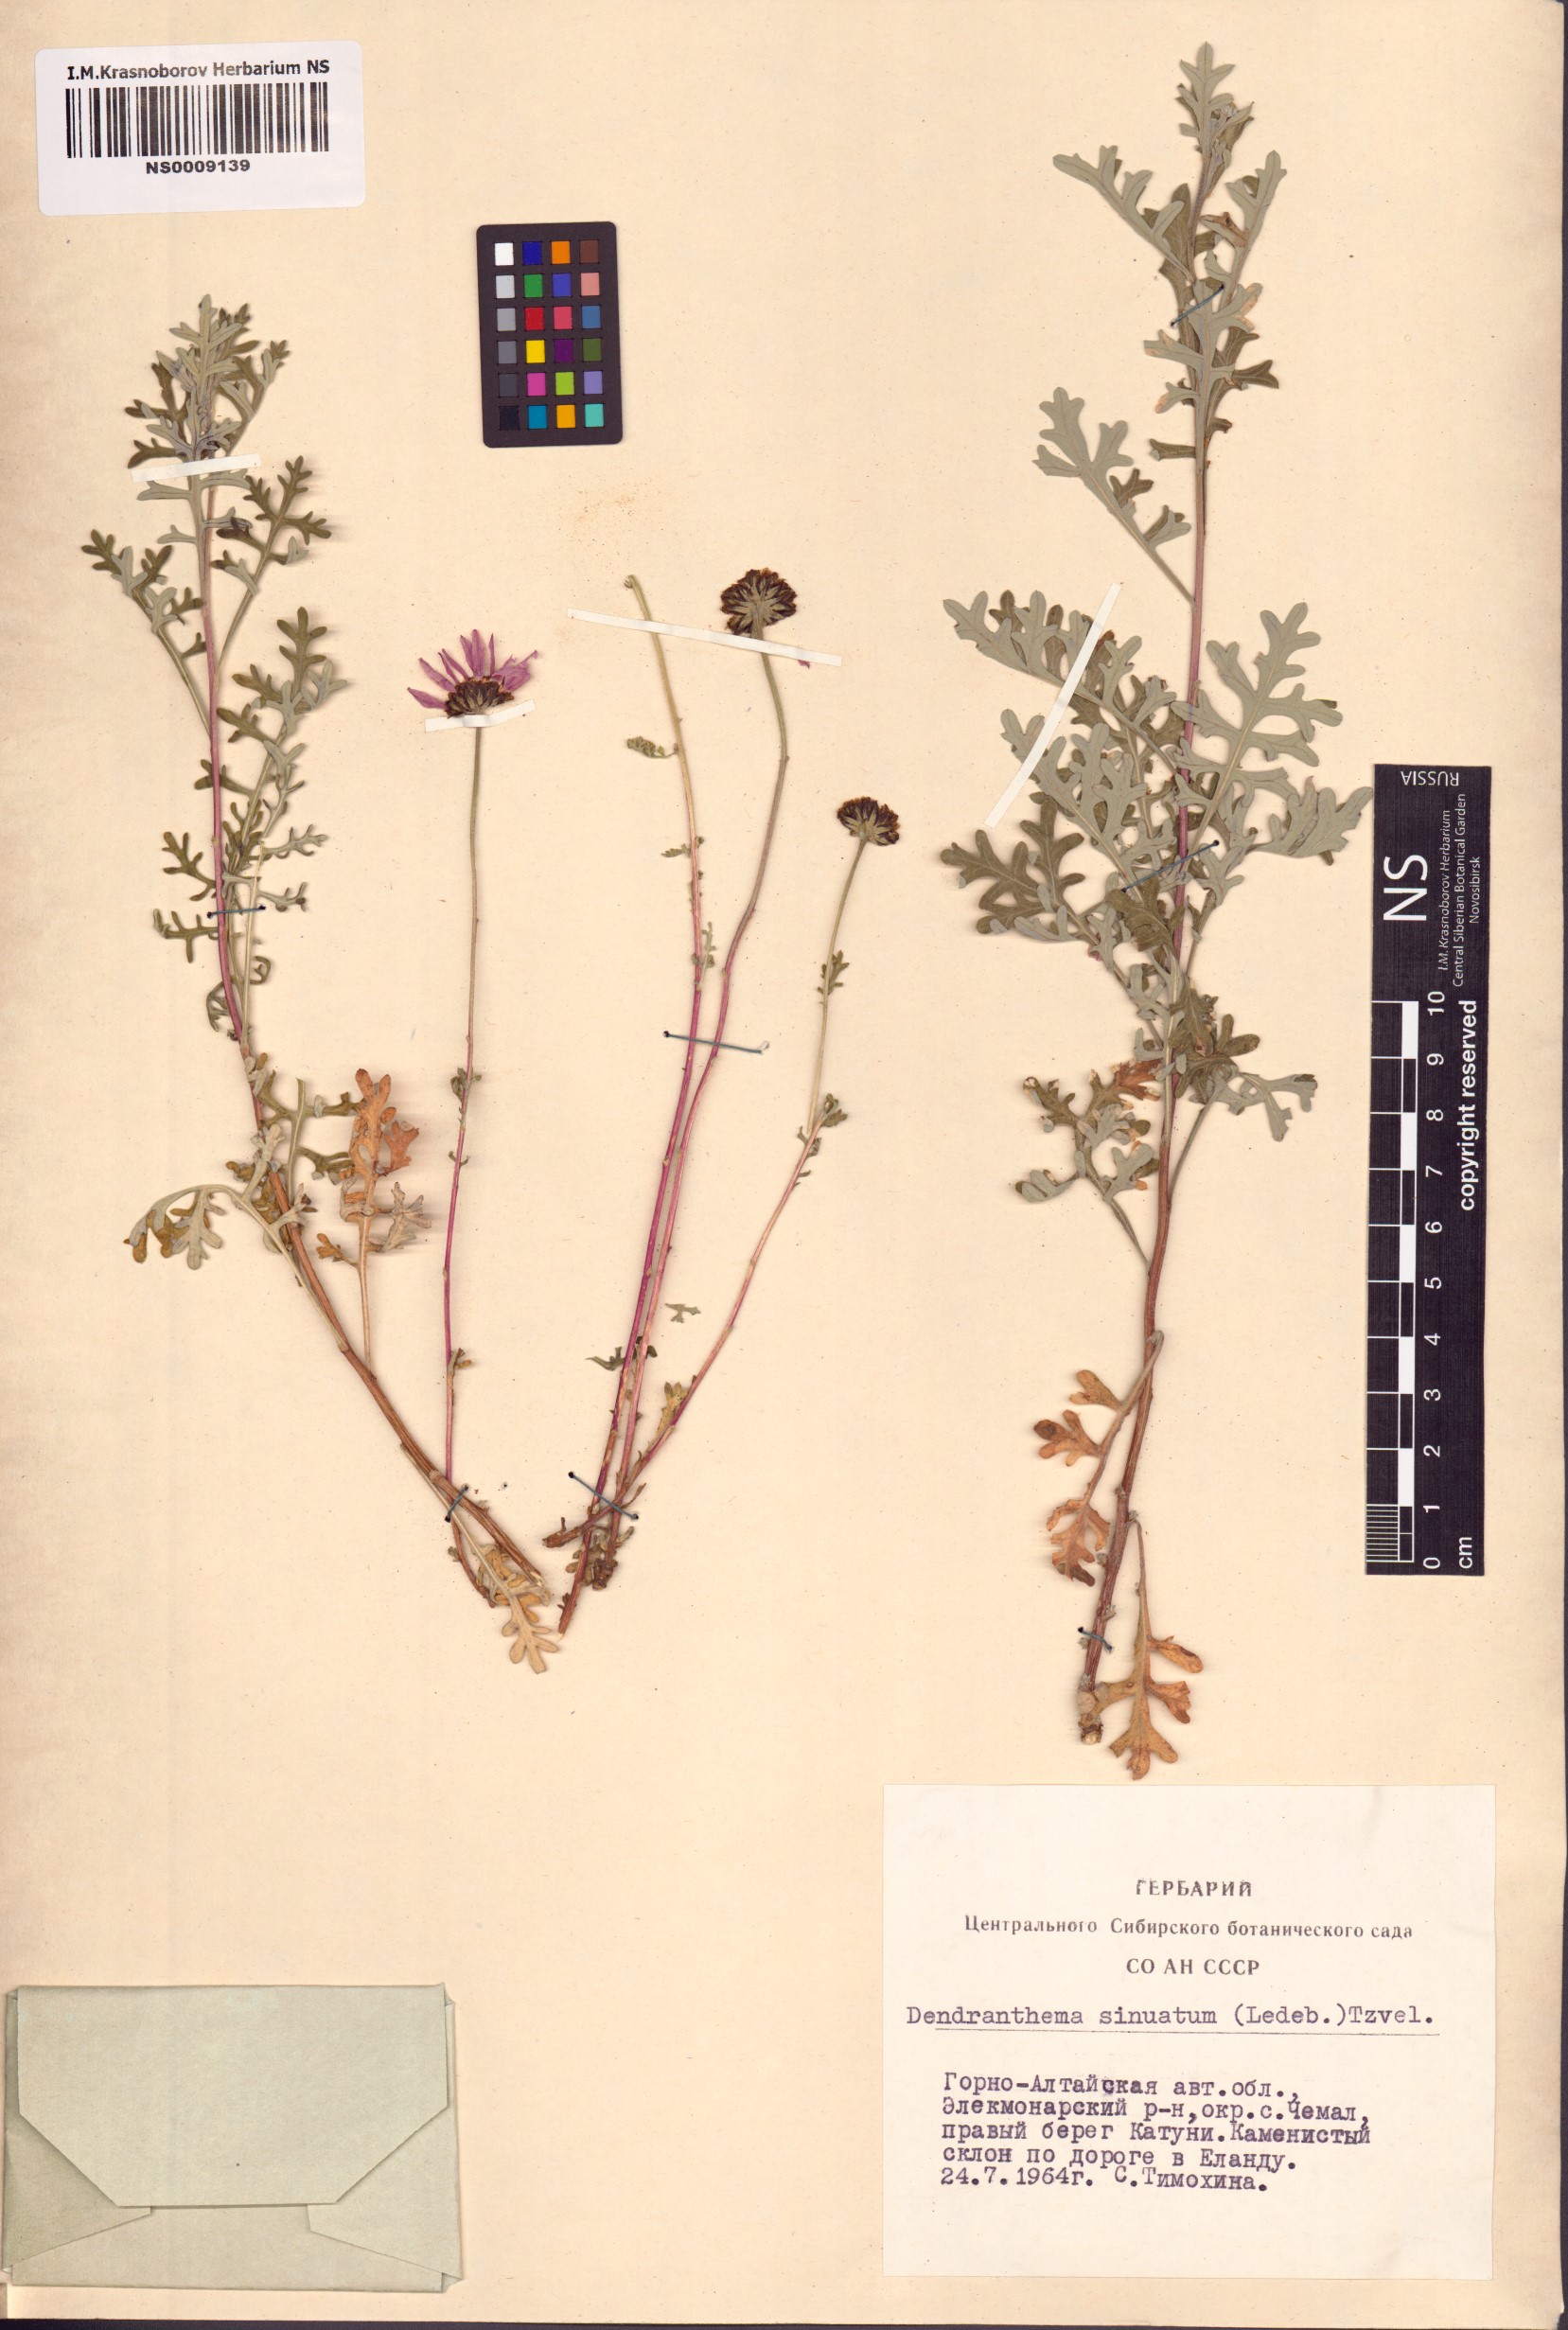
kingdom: Plantae
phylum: Tracheophyta
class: Magnoliopsida
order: Asterales
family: Asteraceae
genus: Chrysanthemum
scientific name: Chrysanthemum sinuatum
